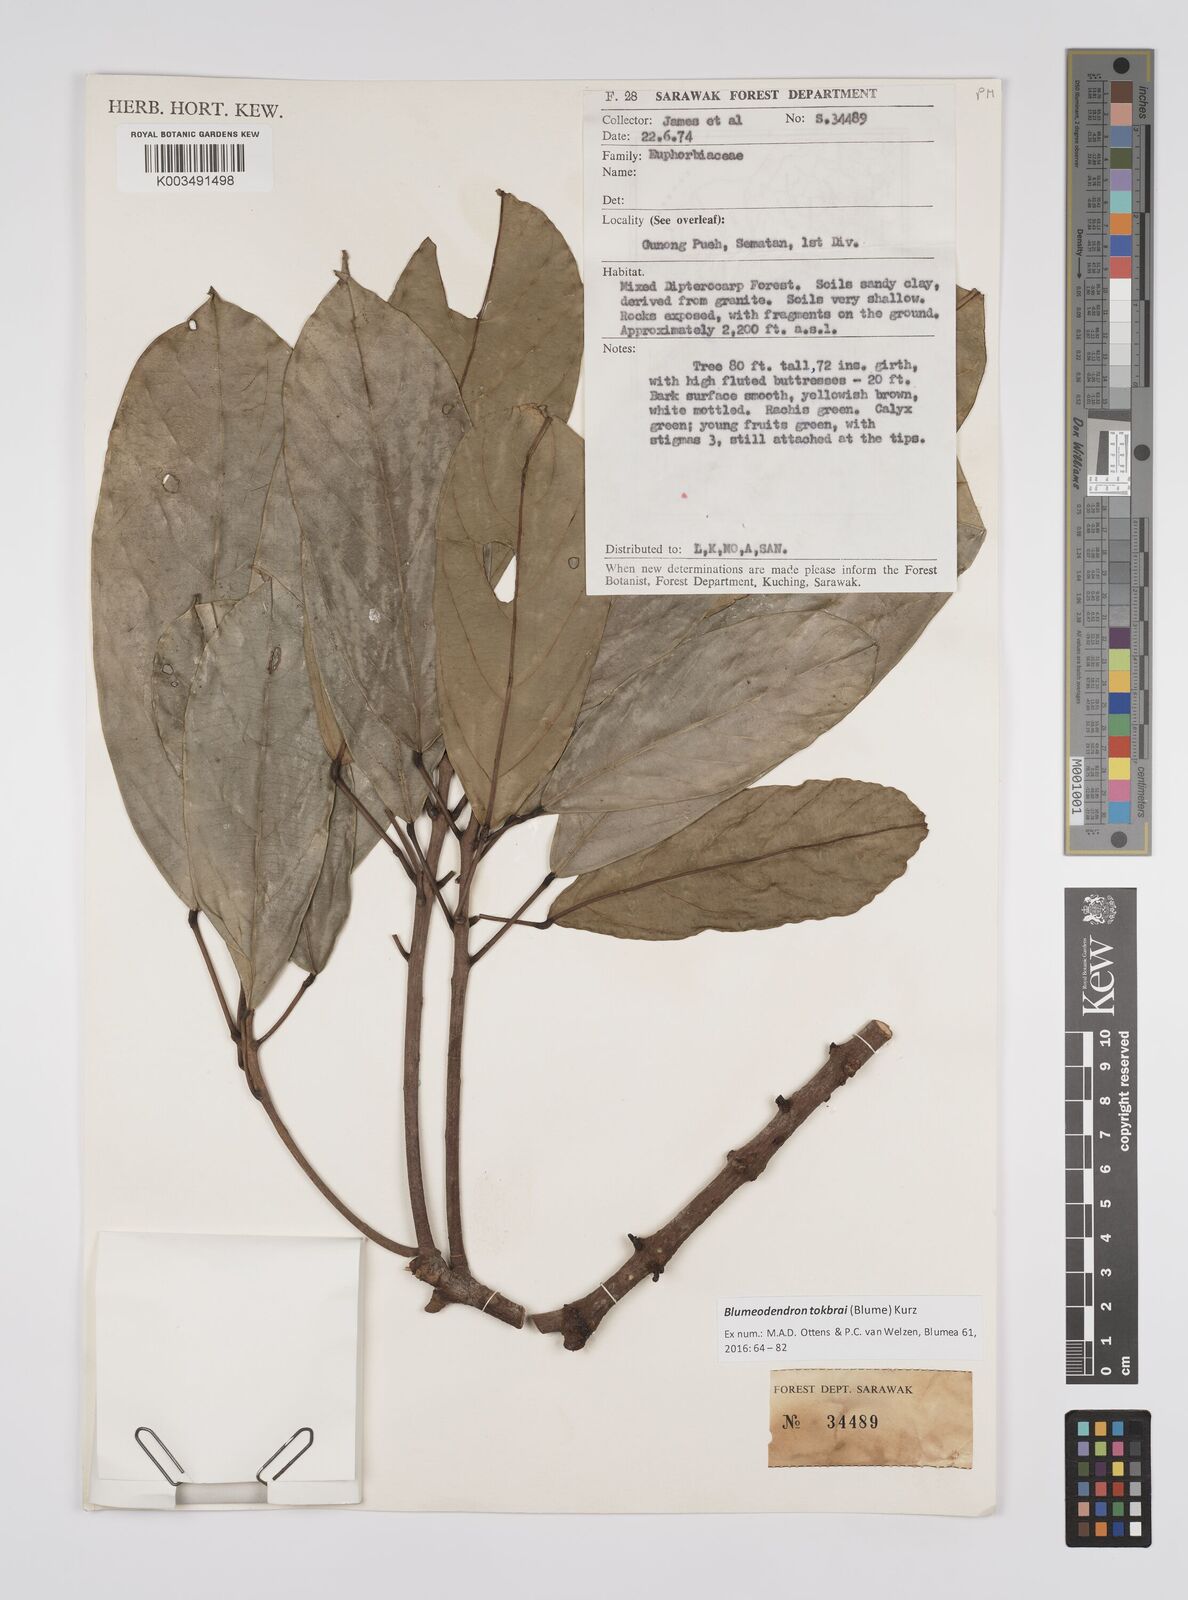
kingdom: Plantae
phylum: Tracheophyta
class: Magnoliopsida
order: Malpighiales
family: Euphorbiaceae
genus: Blumeodendron
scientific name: Blumeodendron tokbrai
